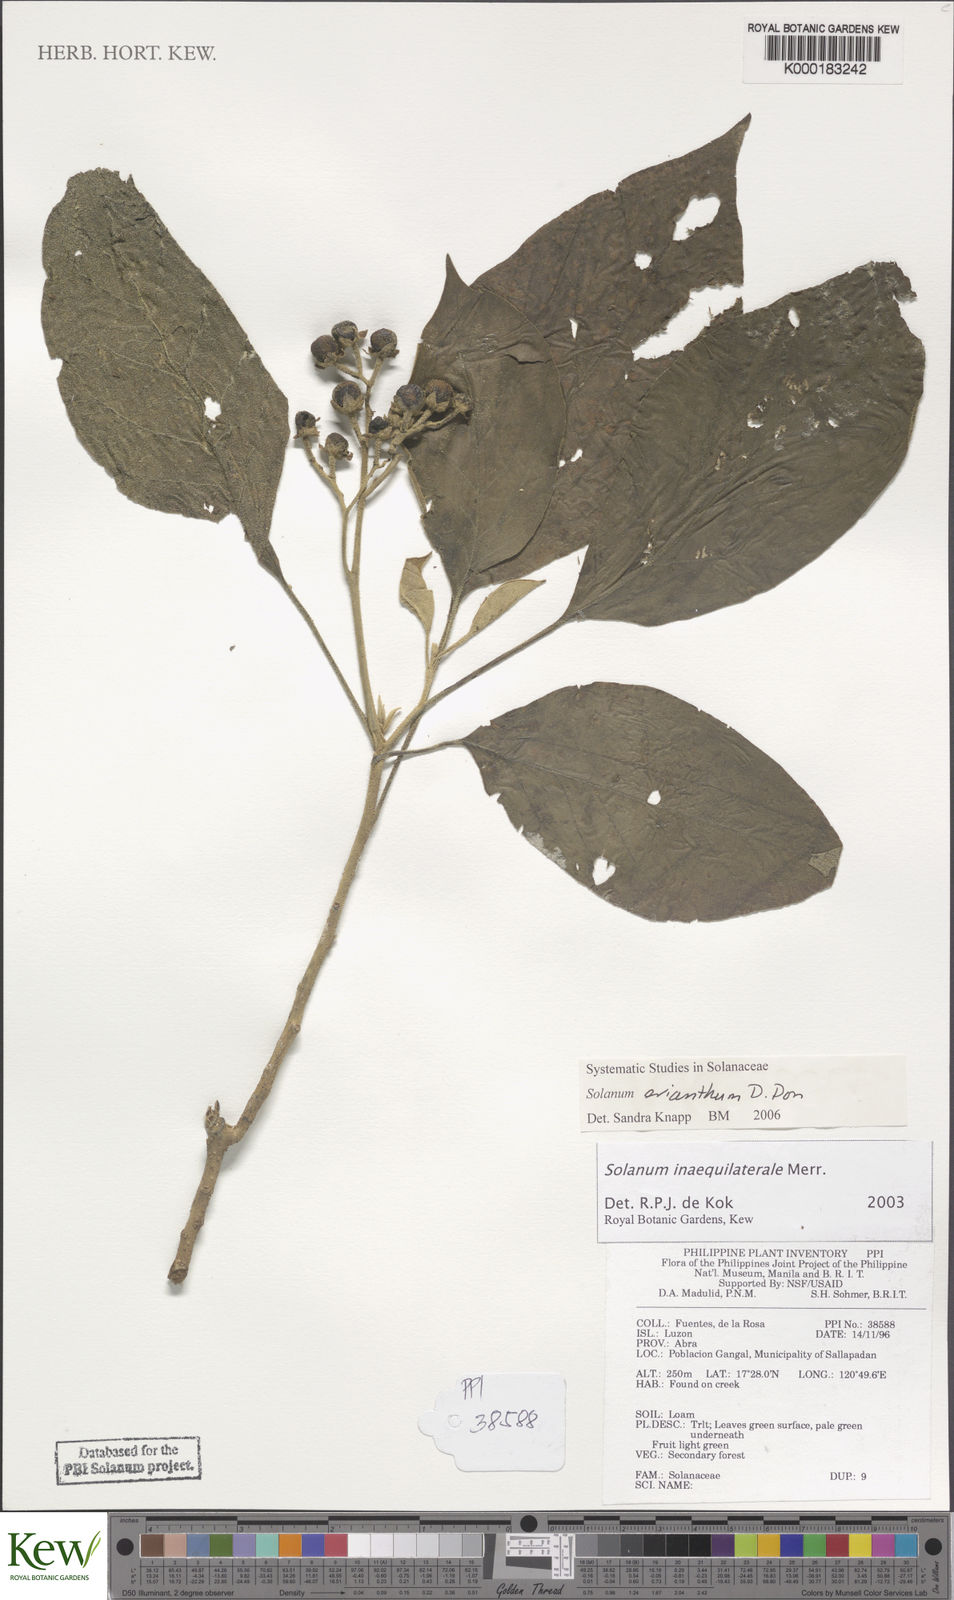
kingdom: Plantae
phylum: Tracheophyta
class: Magnoliopsida
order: Solanales
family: Solanaceae
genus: Solanum
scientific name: Solanum pseudosaponaceum
